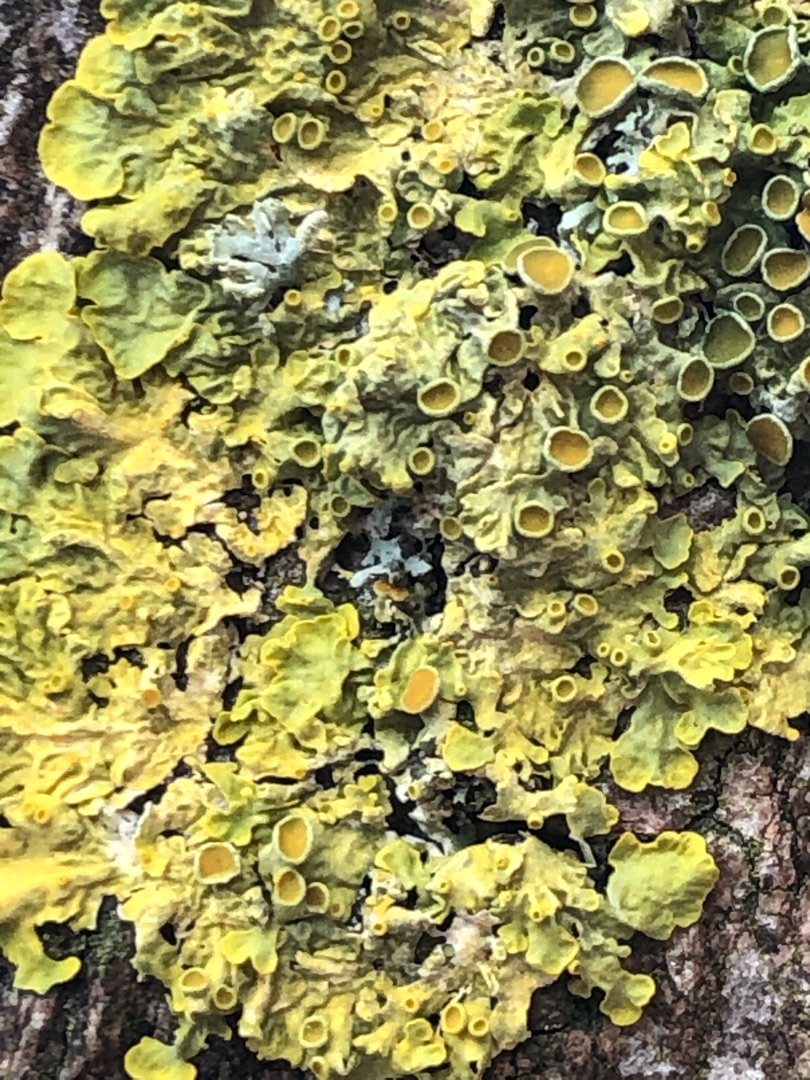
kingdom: Fungi
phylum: Ascomycota
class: Lecanoromycetes
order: Teloschistales
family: Teloschistaceae
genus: Xanthoria
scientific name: Xanthoria parietina
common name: Almindelig væggelav
